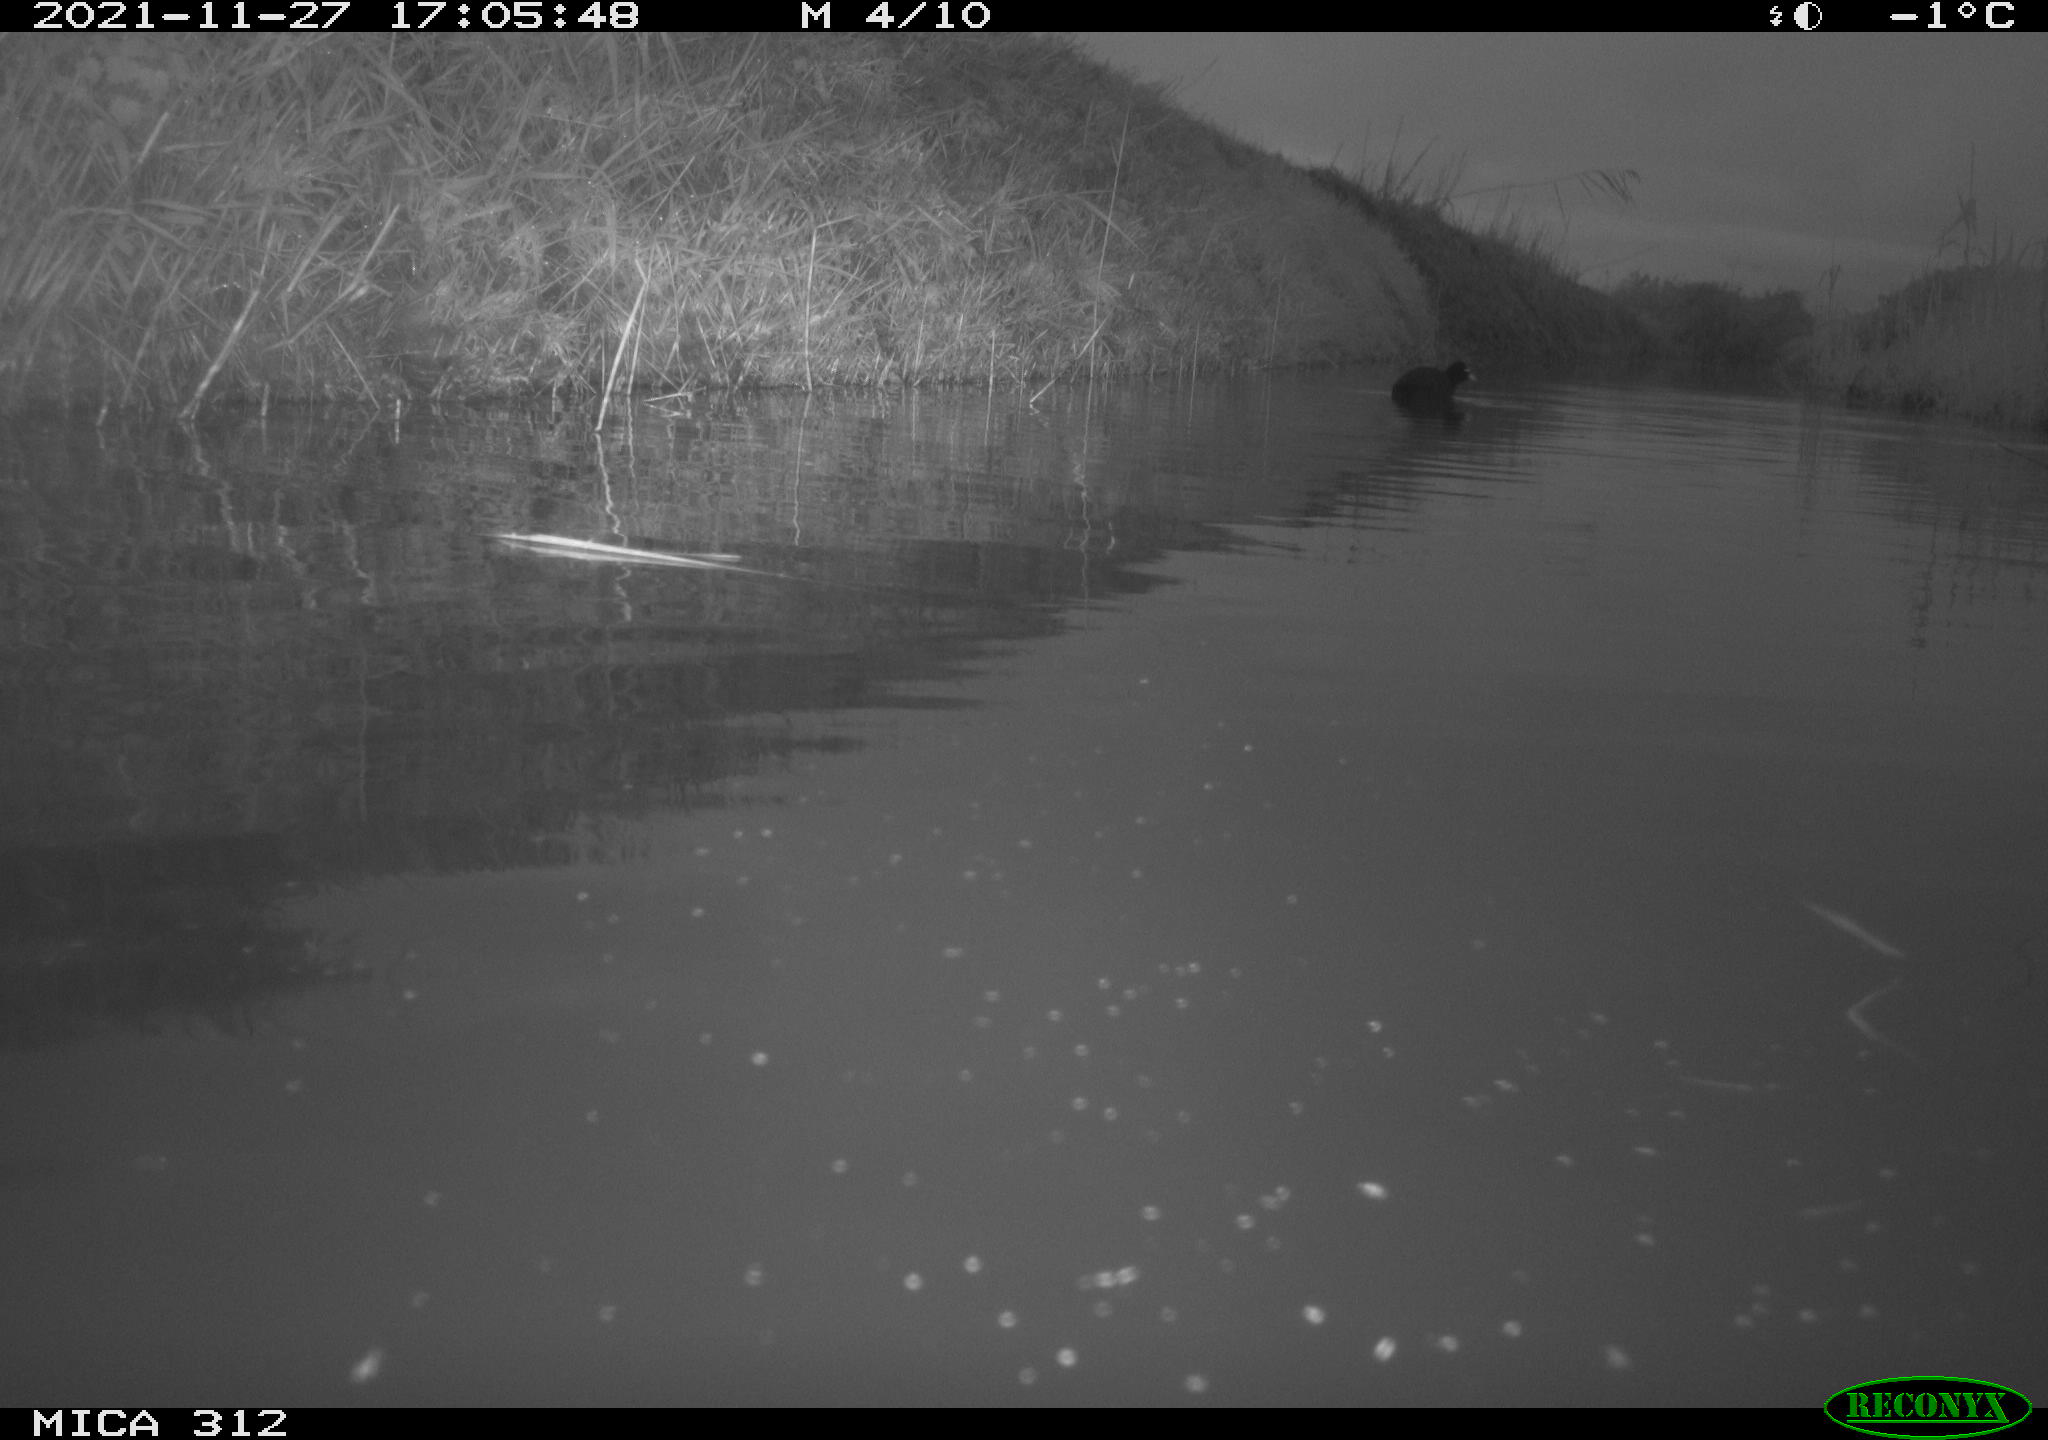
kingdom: Animalia
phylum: Chordata
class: Aves
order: Gruiformes
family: Rallidae
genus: Fulica
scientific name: Fulica atra
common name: Eurasian coot
